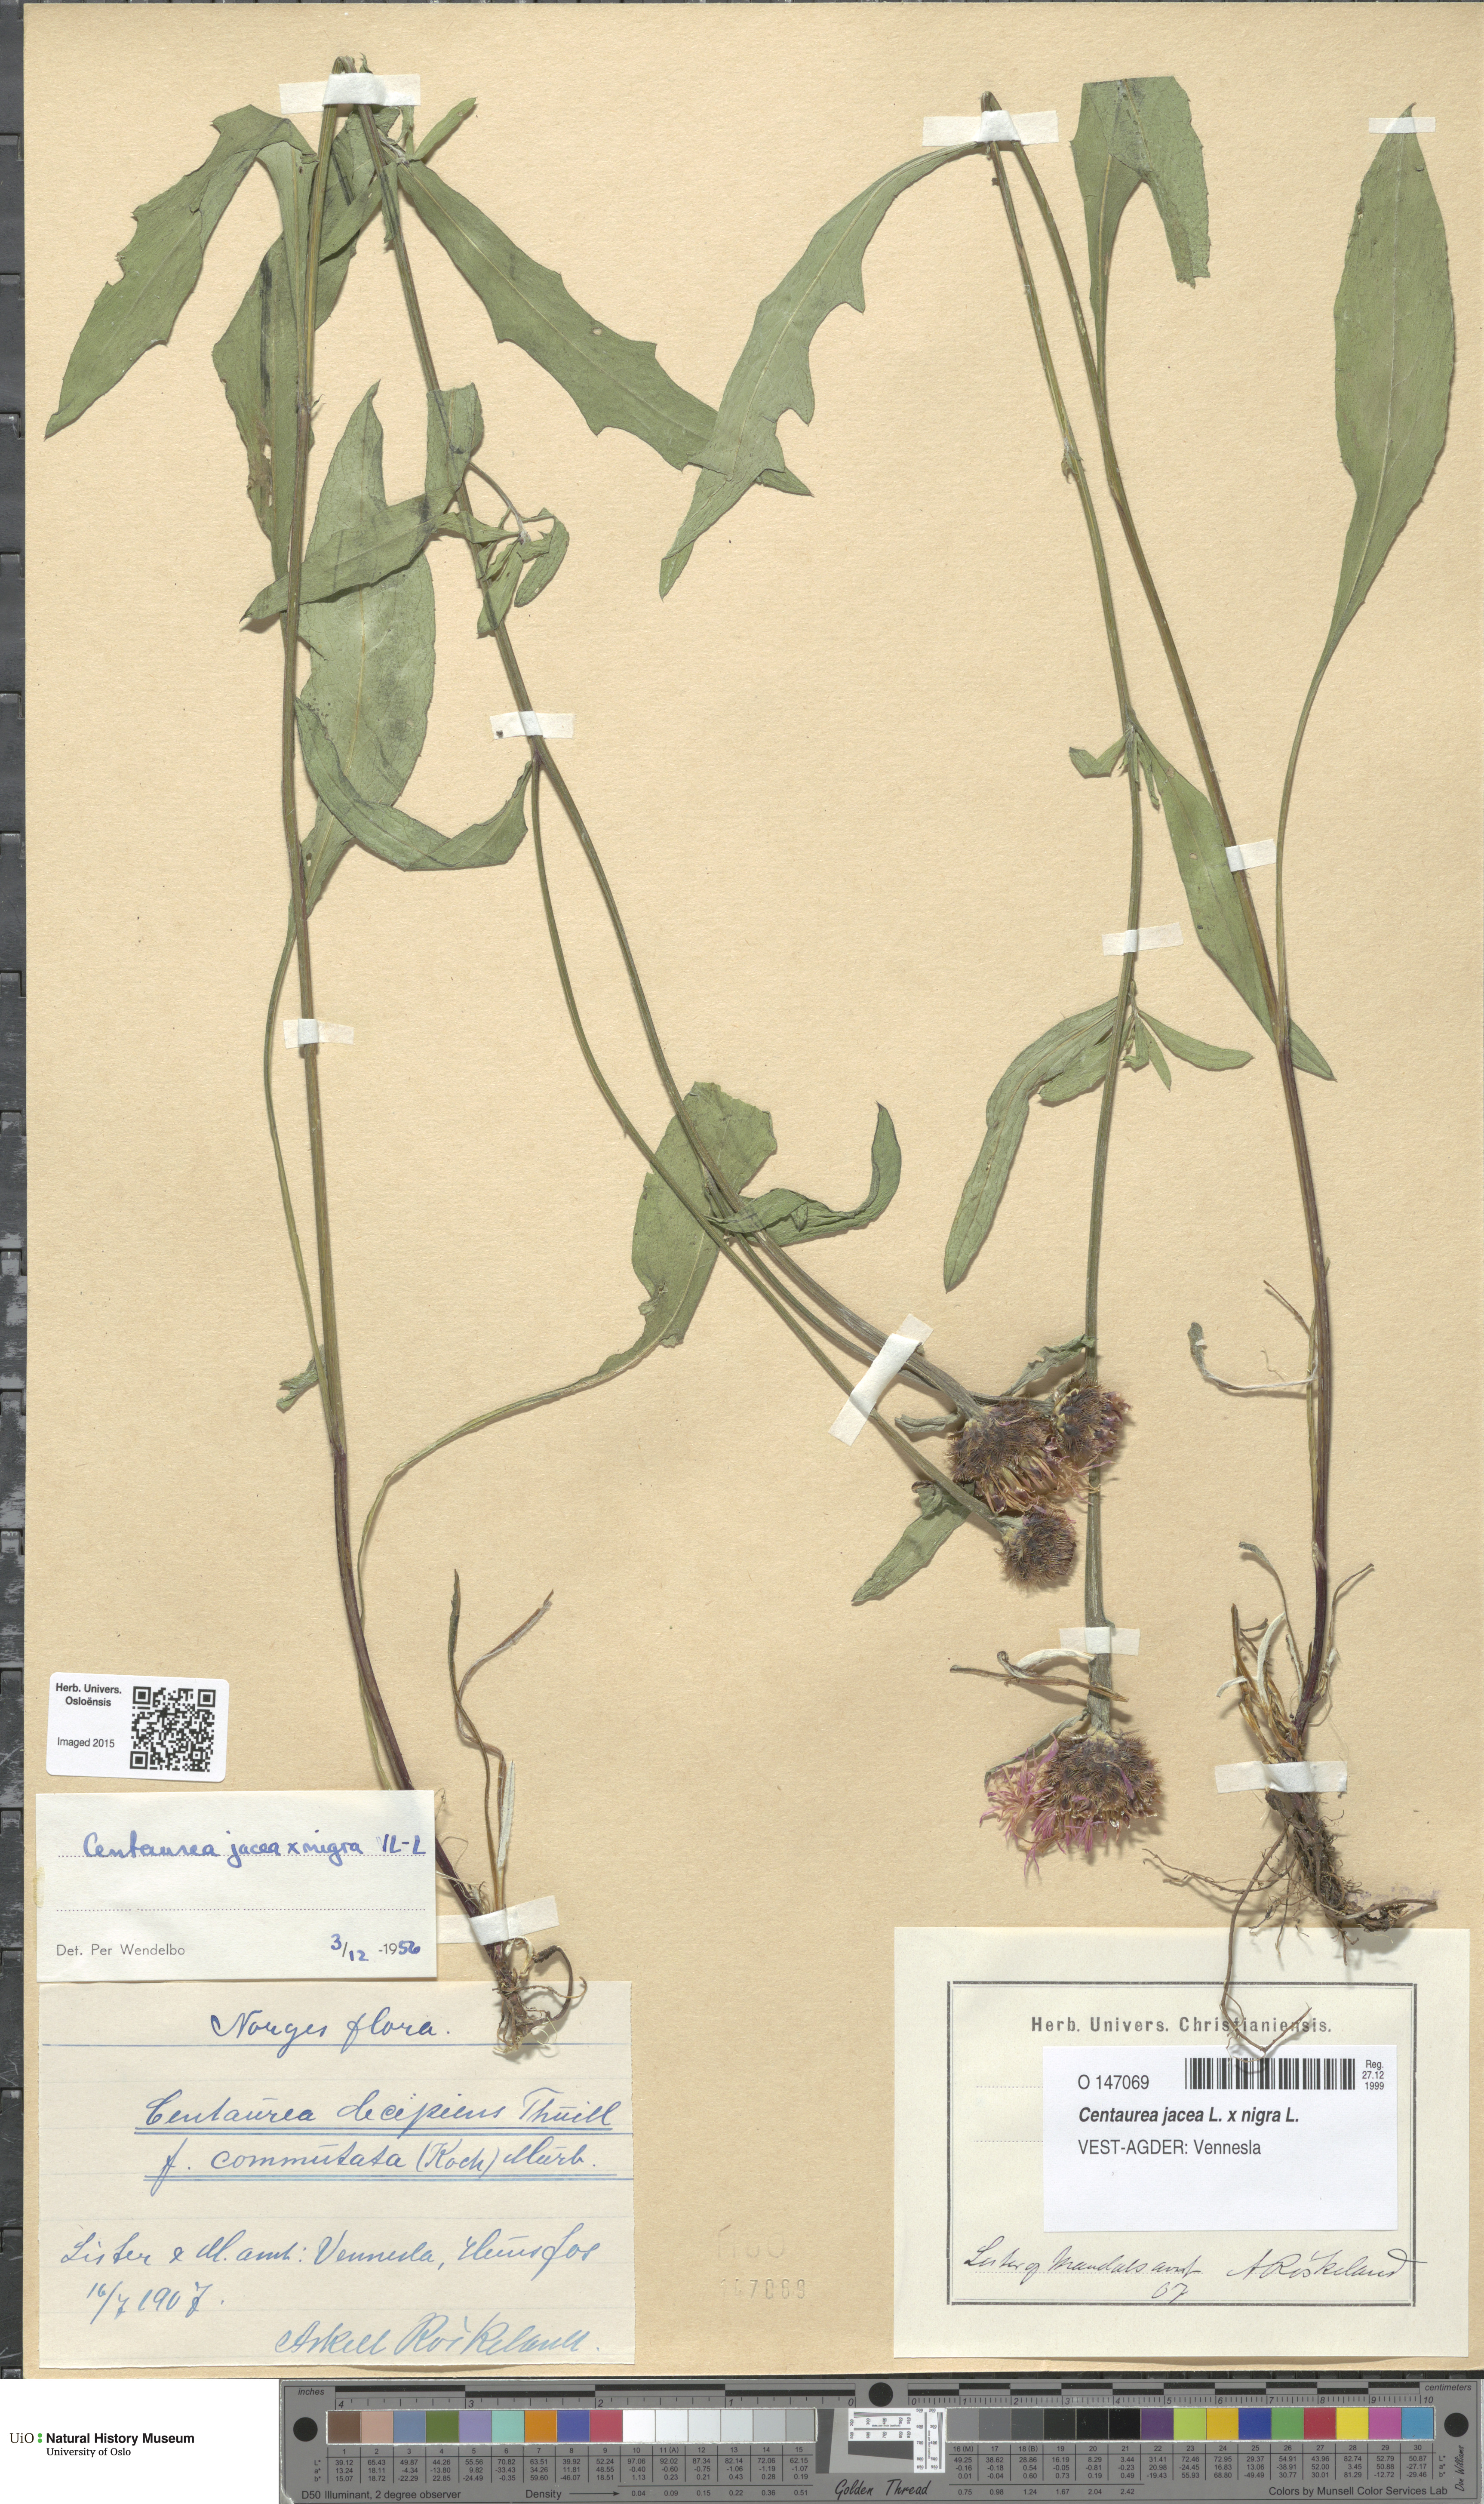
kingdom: Plantae
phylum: Tracheophyta
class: Magnoliopsida
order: Asterales
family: Asteraceae
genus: Centaurea
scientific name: Centaurea
